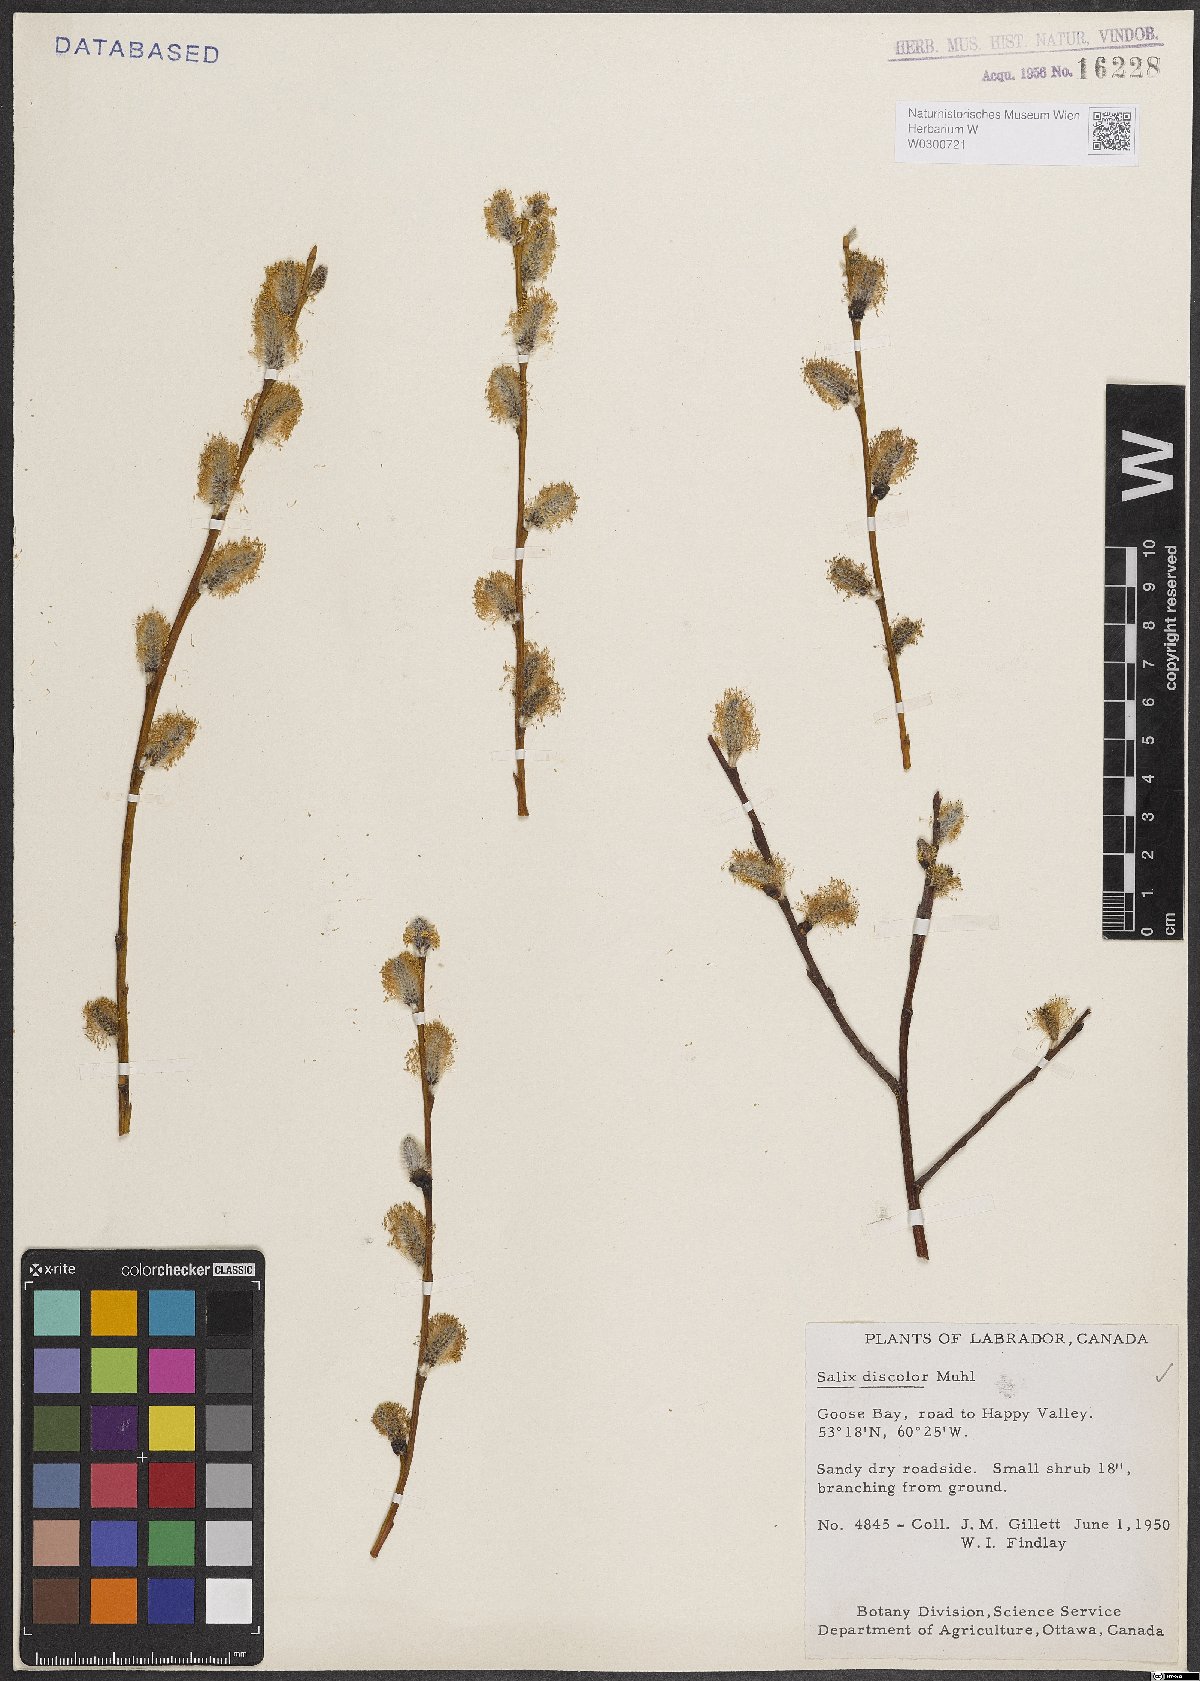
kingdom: Plantae
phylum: Tracheophyta
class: Magnoliopsida
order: Malpighiales
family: Salicaceae
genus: Salix
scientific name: Salix discolor
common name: Glaucous willow
